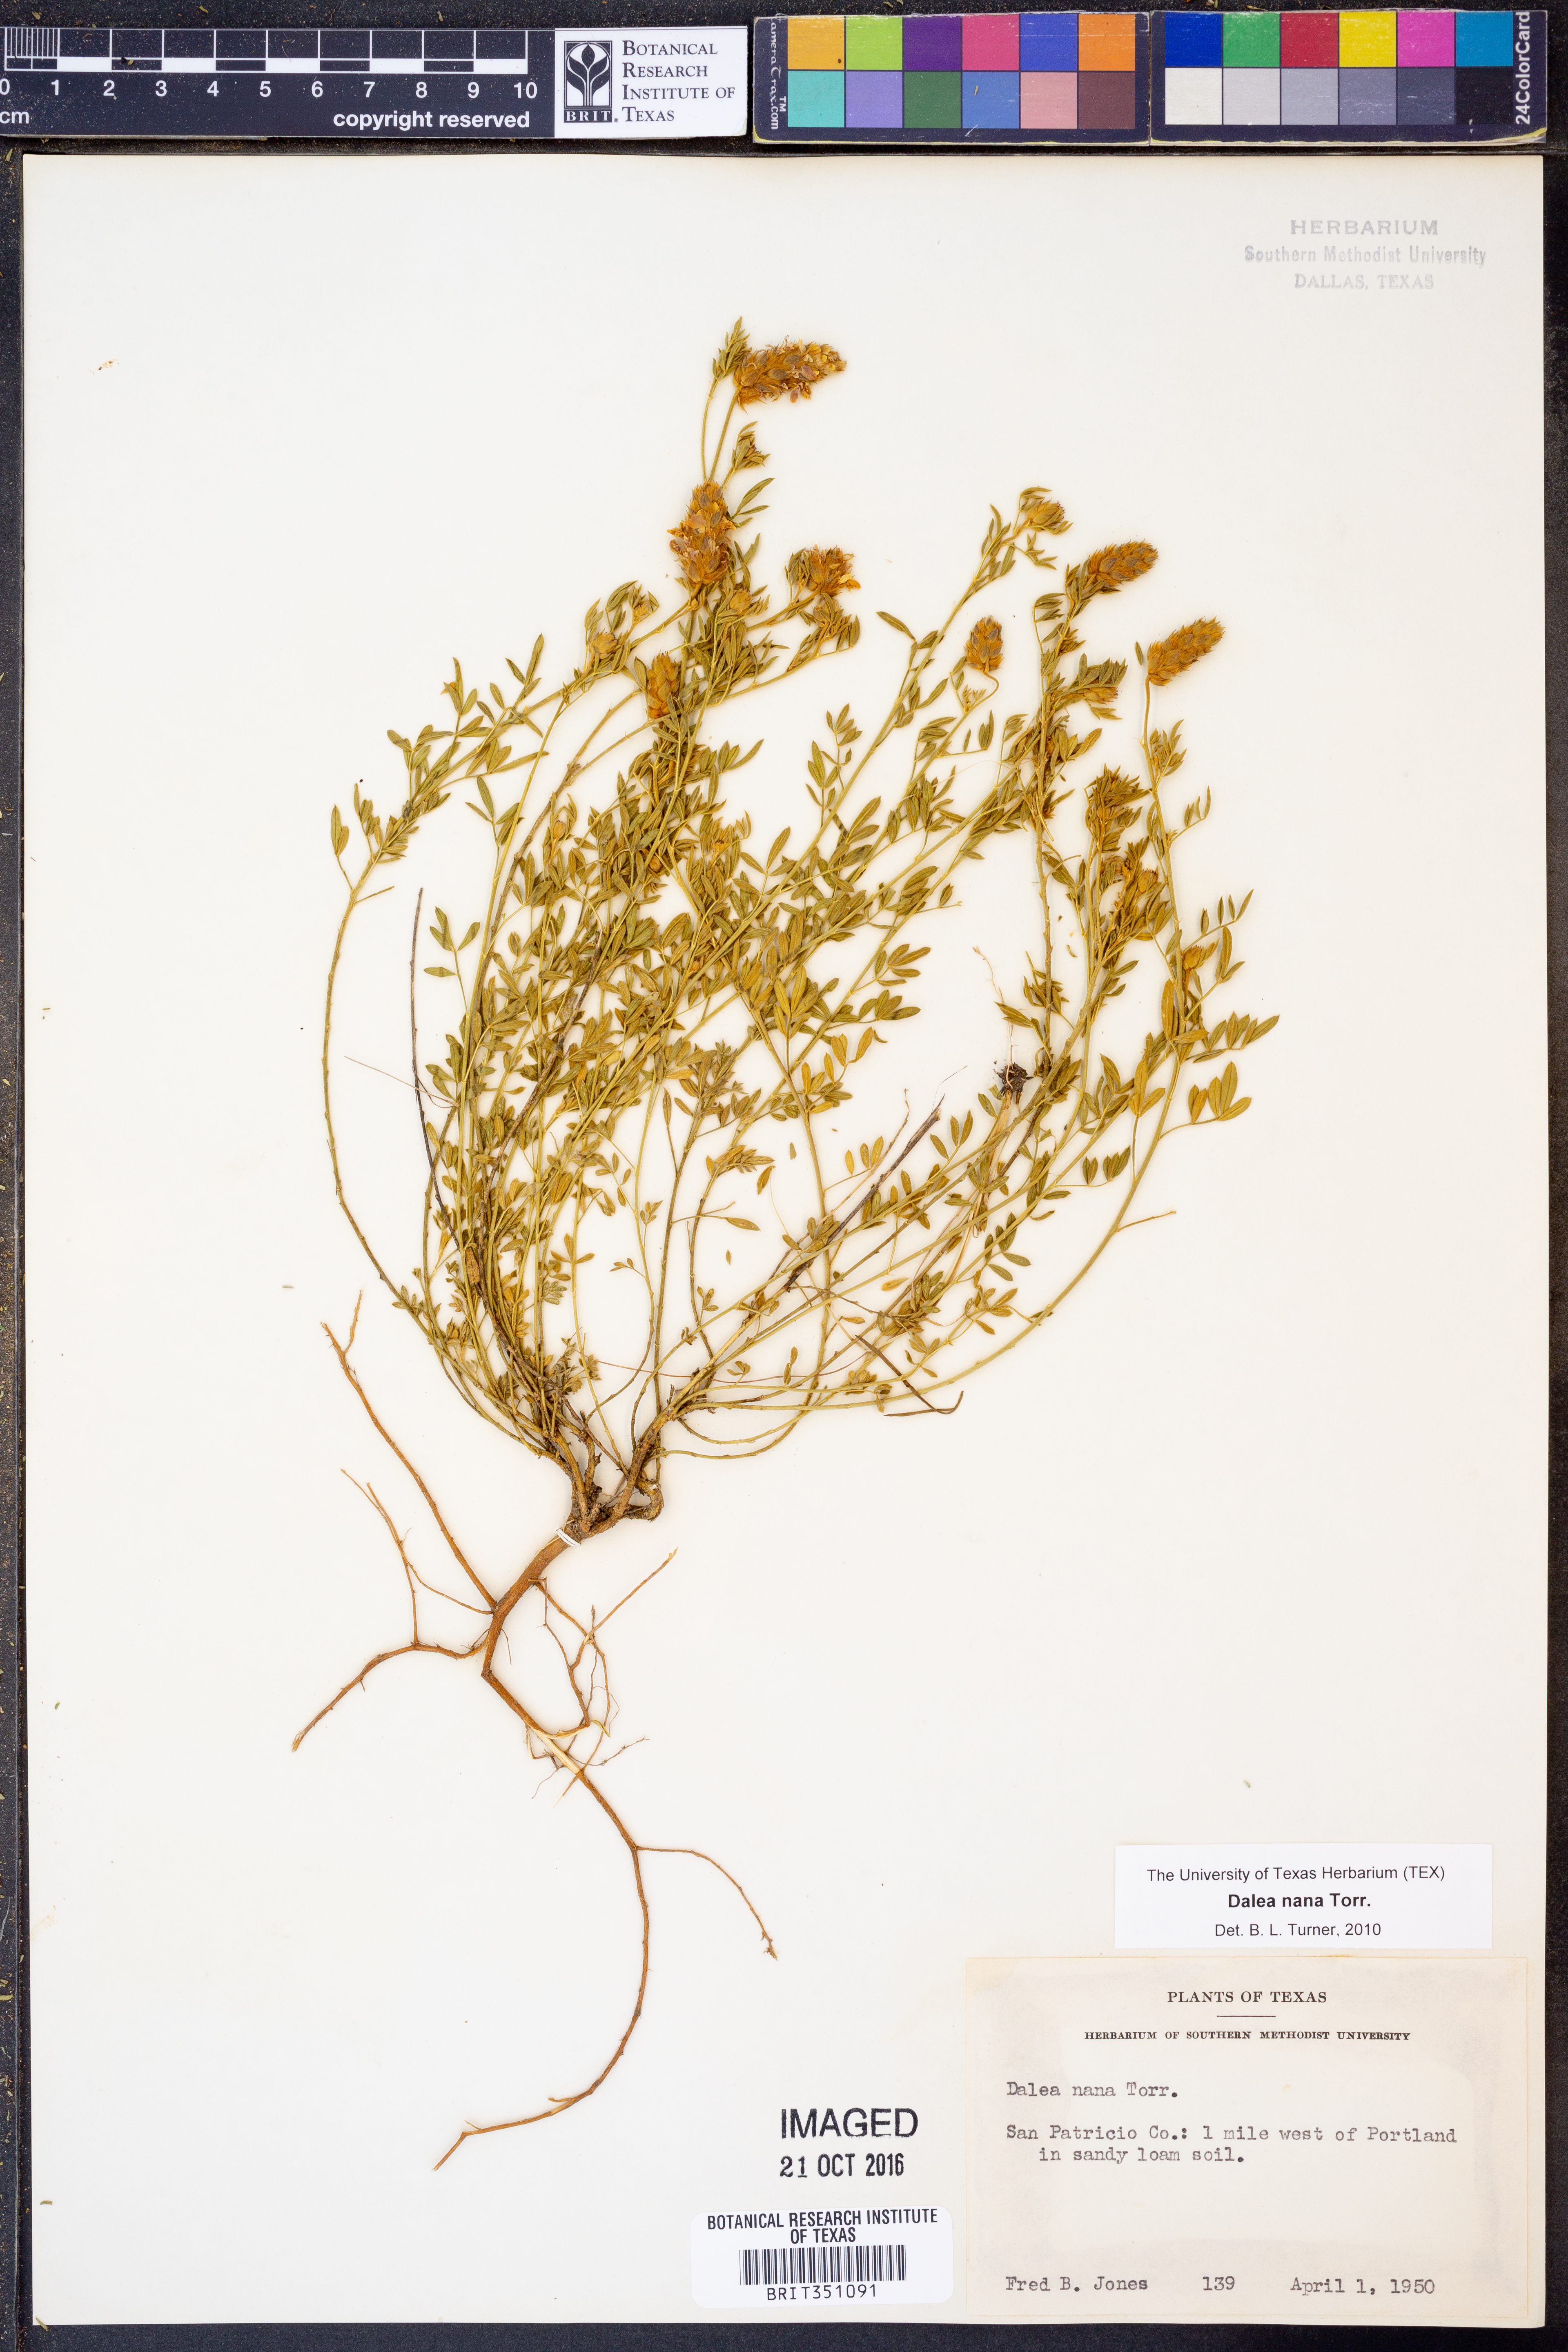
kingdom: Plantae
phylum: Tracheophyta
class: Magnoliopsida
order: Fabales
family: Fabaceae
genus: Dalea
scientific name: Dalea nana
